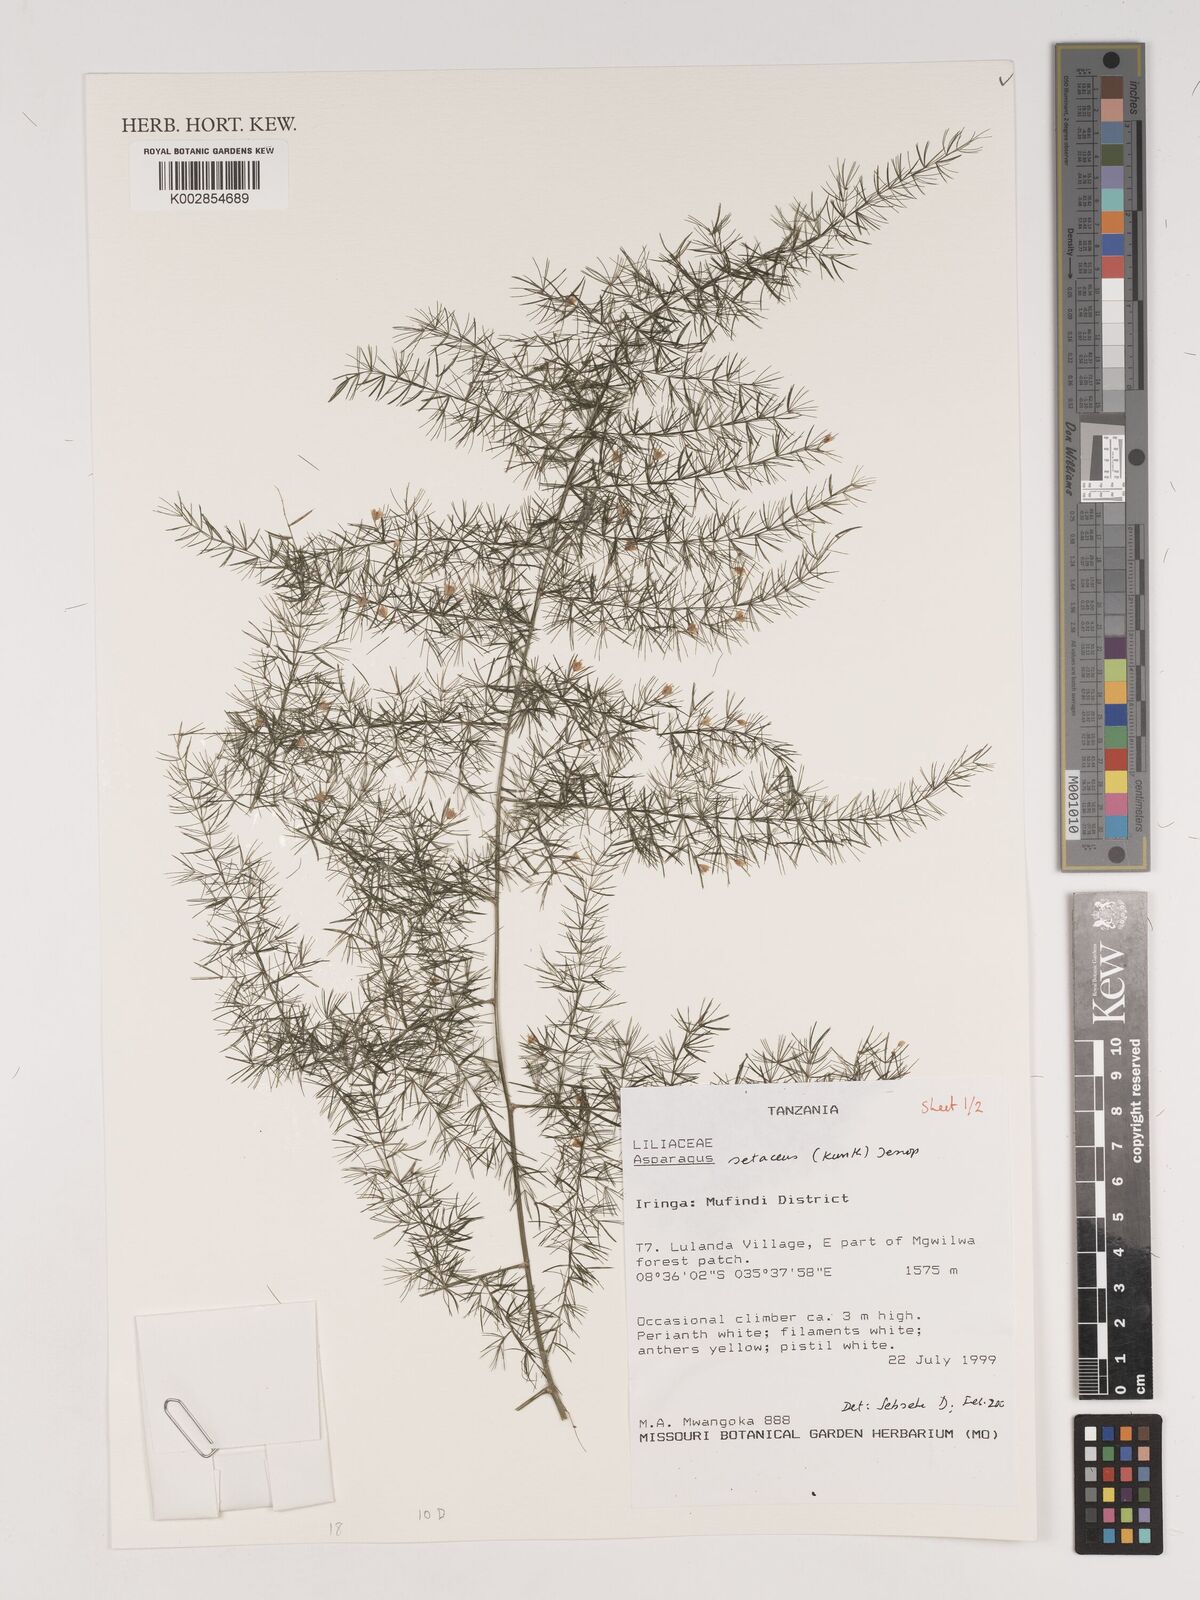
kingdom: Plantae
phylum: Tracheophyta
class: Liliopsida
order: Asparagales
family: Asparagaceae
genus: Asparagus
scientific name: Asparagus setaceus
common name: Common asparagus fern
